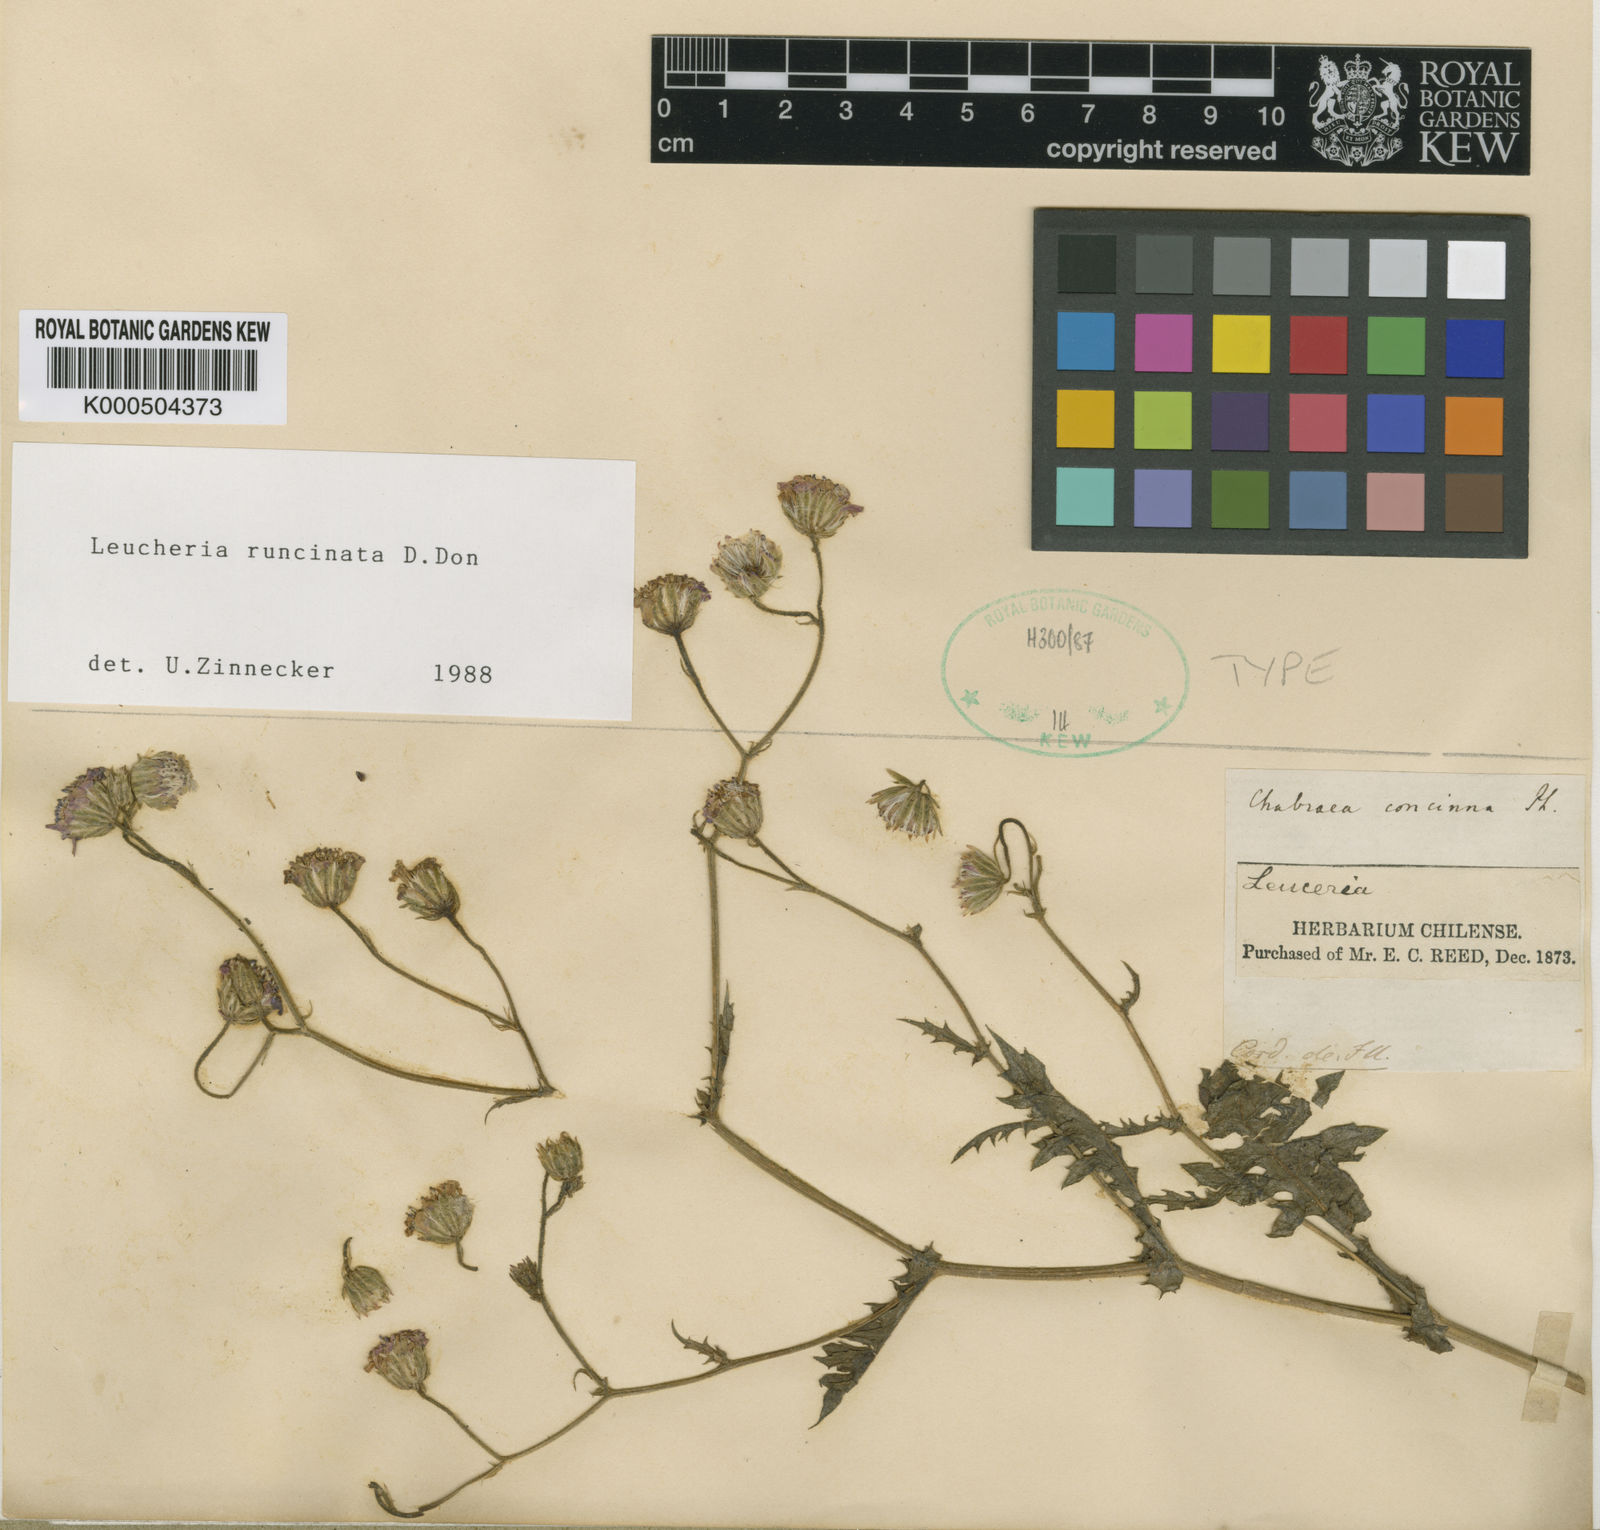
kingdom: Plantae
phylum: Tracheophyta
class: Magnoliopsida
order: Asterales
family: Asteraceae
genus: Leucheria
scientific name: Leucheria runcinata
